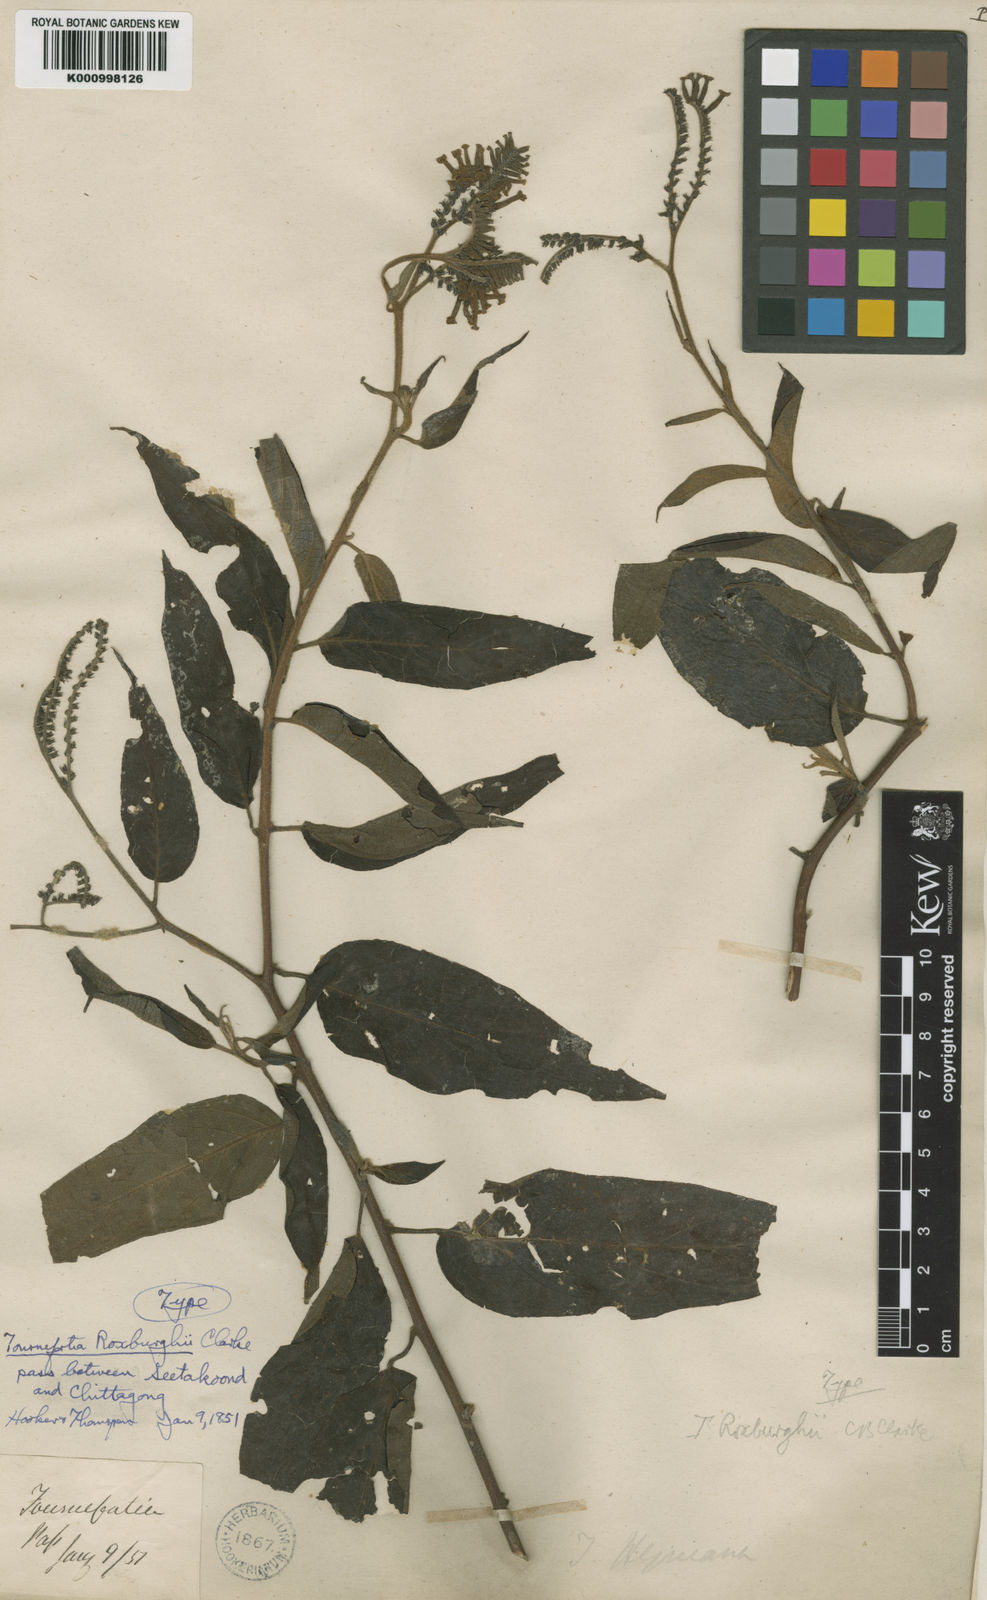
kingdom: Plantae
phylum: Tracheophyta
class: Magnoliopsida
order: Boraginales
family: Heliotropiaceae
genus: Tournefortia
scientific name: Tournefortia montana
